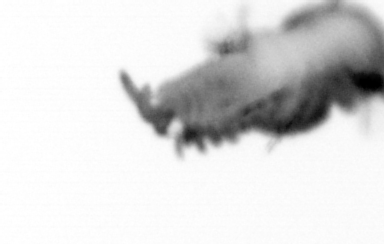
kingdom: Animalia
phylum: Annelida
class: Polychaeta
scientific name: Polychaeta
